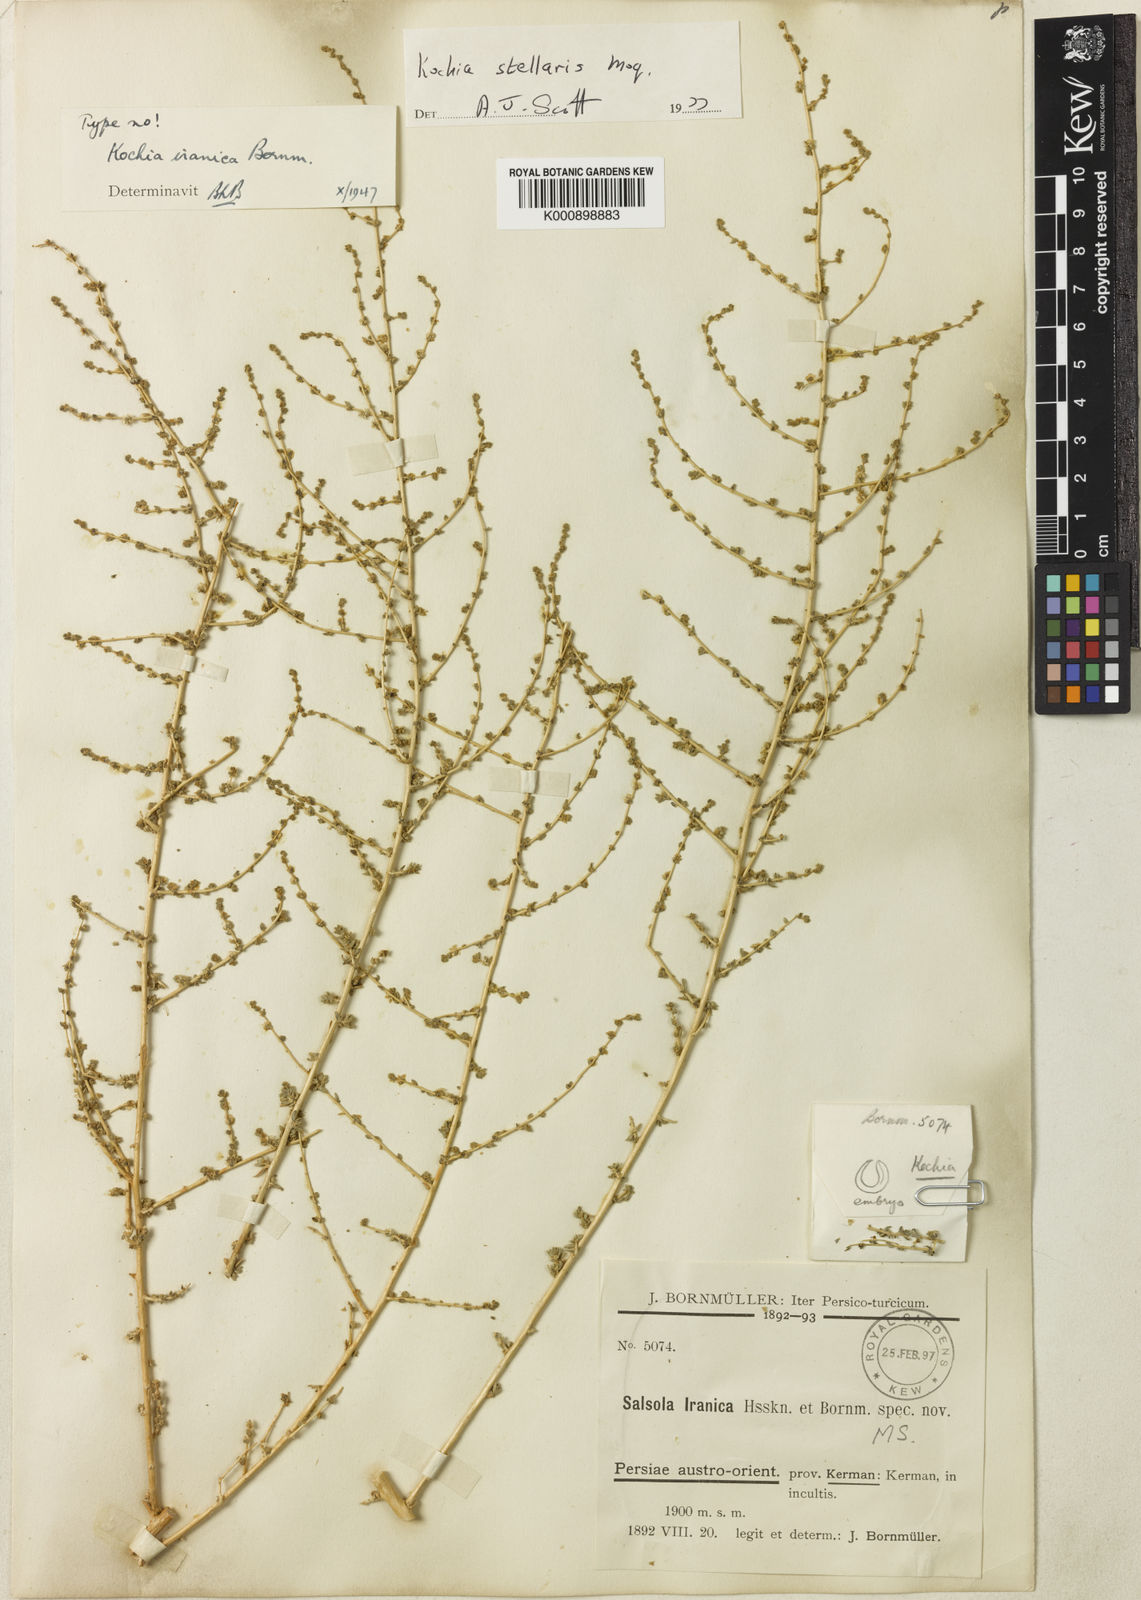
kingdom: Plantae
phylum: Tracheophyta
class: Magnoliopsida
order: Caryophyllales
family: Amaranthaceae
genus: Bassia
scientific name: Bassia stellaris
